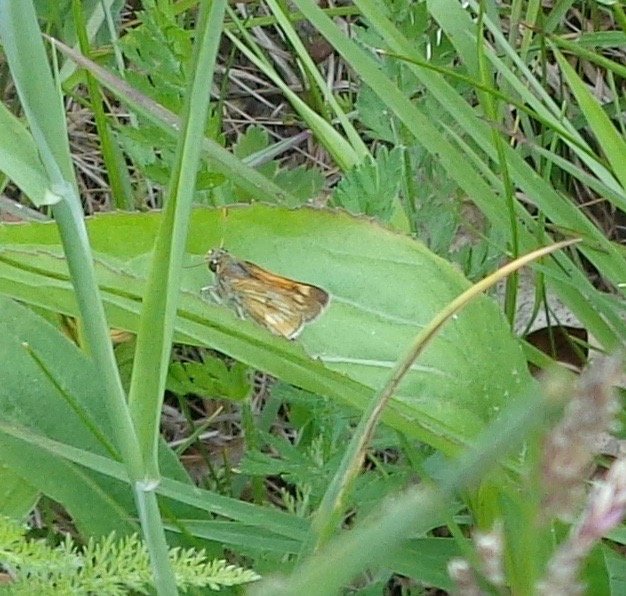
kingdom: Animalia
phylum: Arthropoda
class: Insecta
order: Lepidoptera
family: Hesperiidae
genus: Polites
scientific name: Polites
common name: Long Dash Skipper
